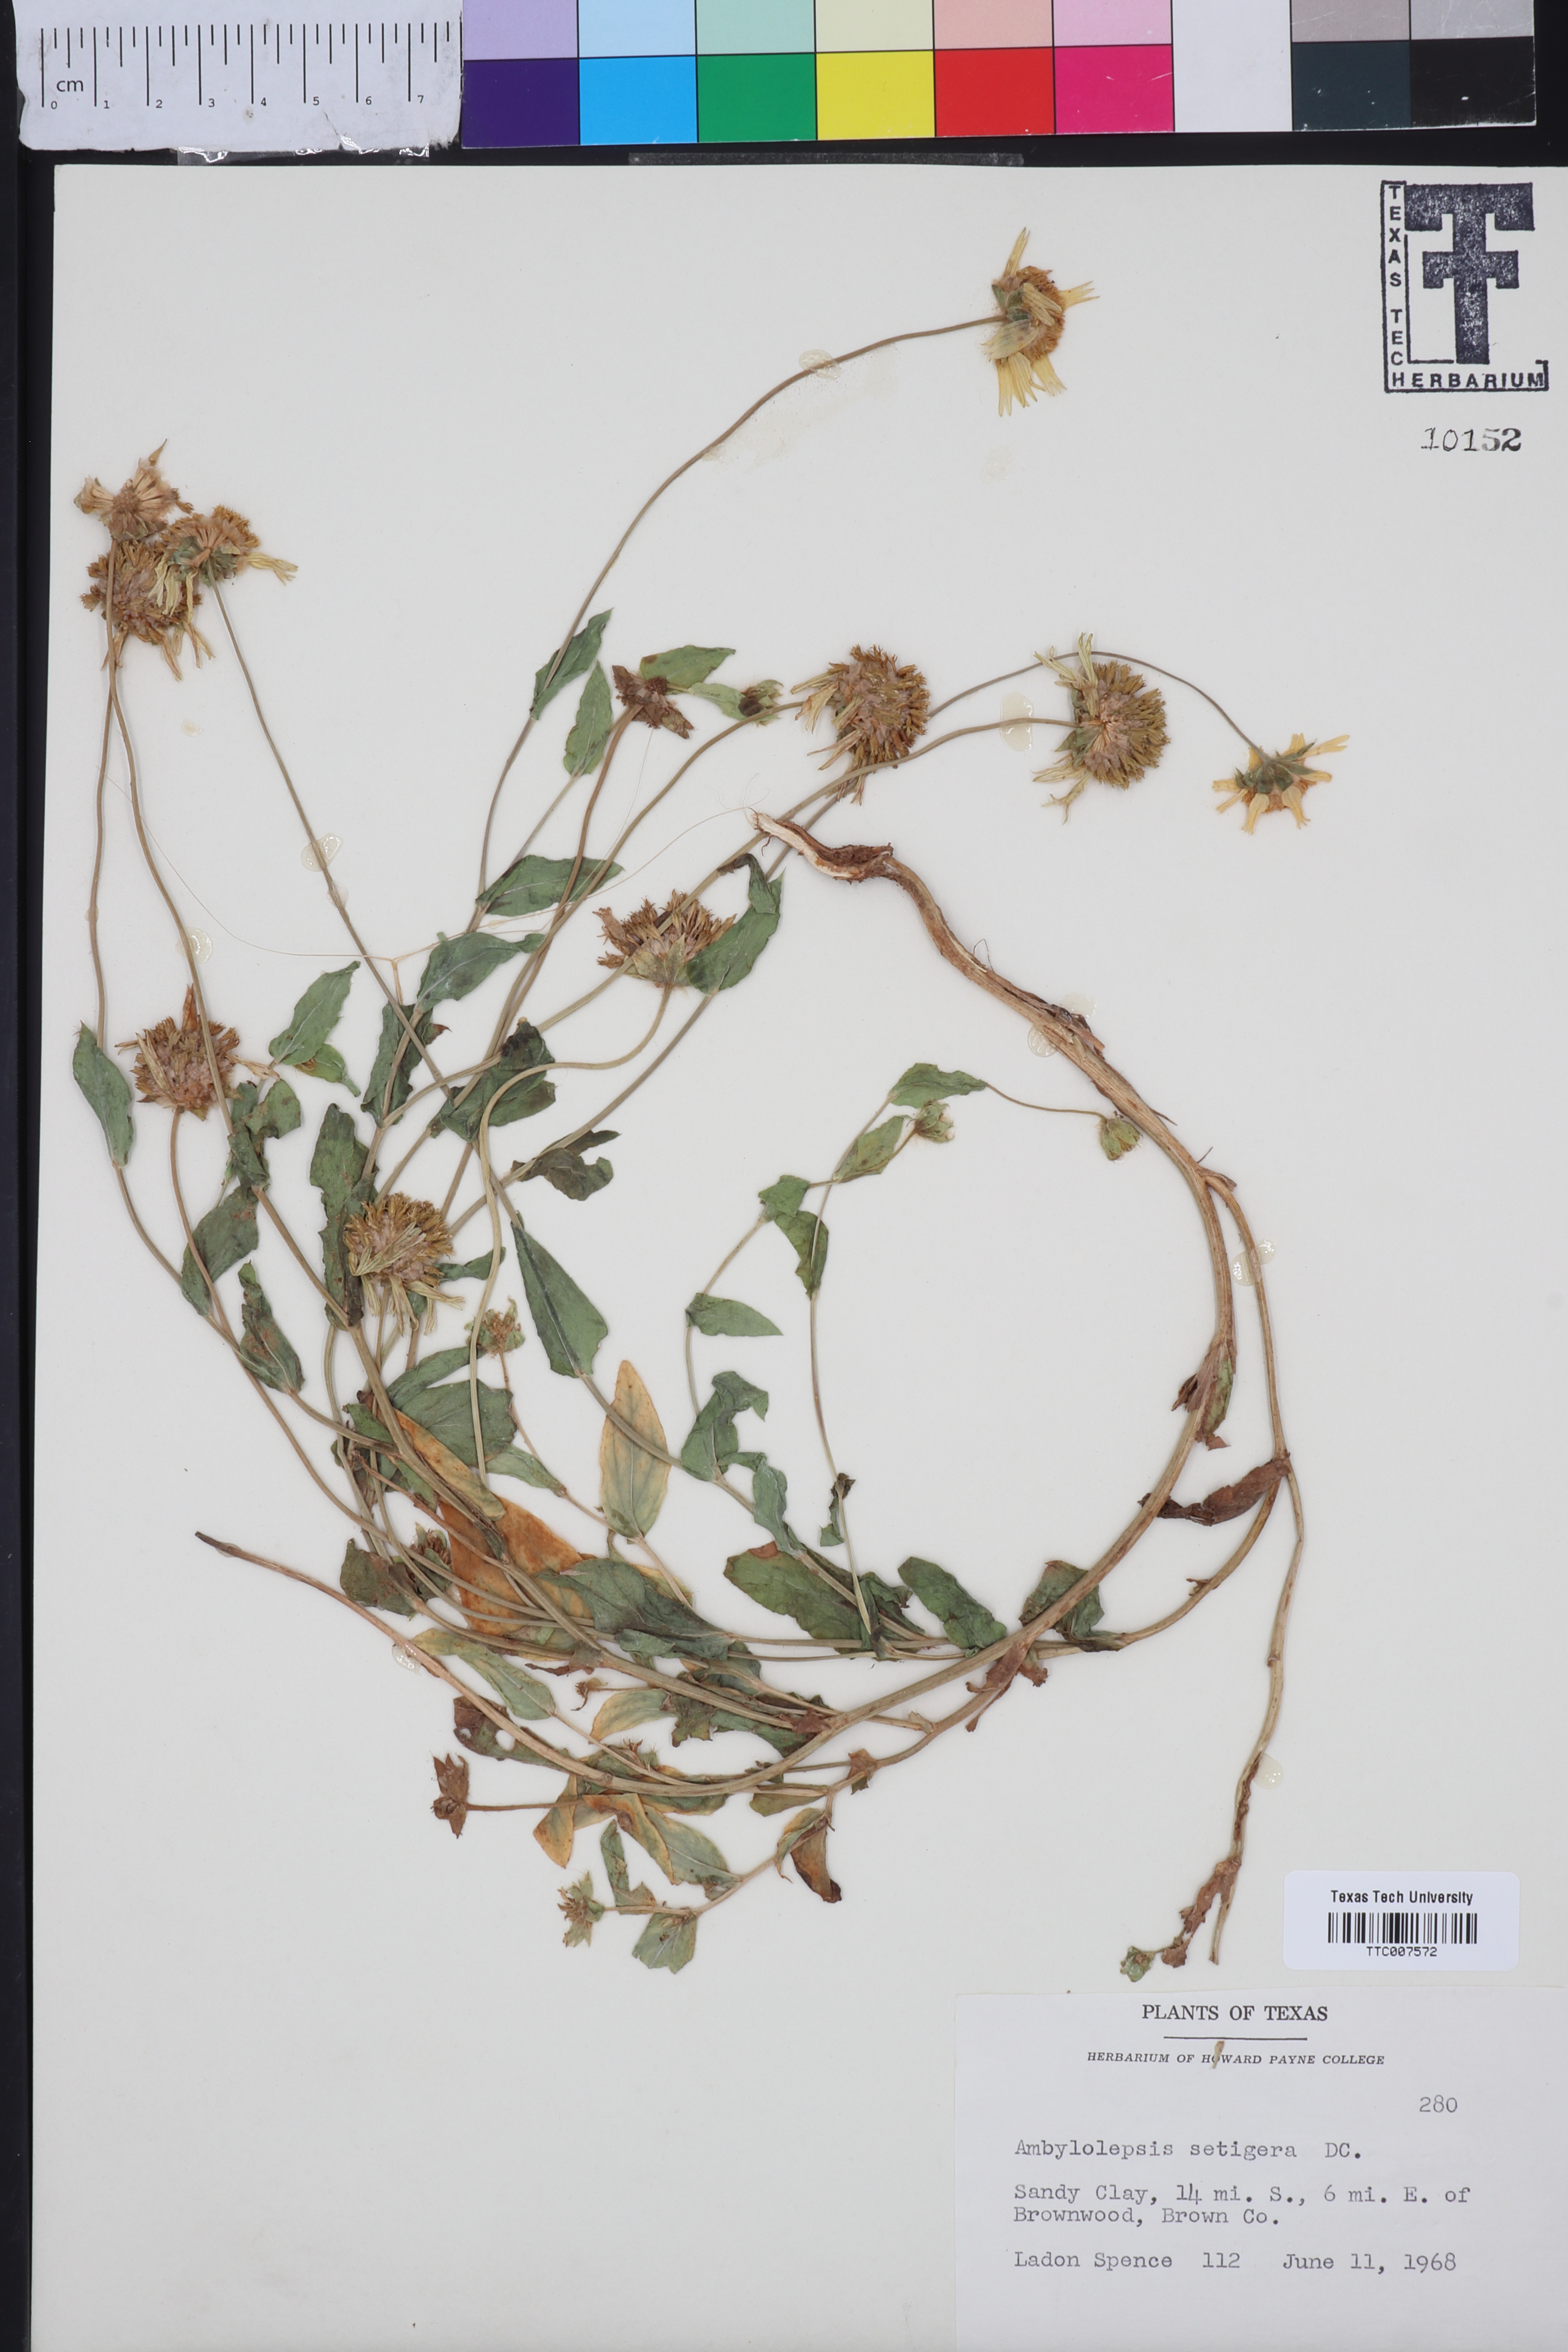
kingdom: Plantae
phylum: Tracheophyta
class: Magnoliopsida
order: Asterales
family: Asteraceae
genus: Amblyolepis
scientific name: Amblyolepis setigera
